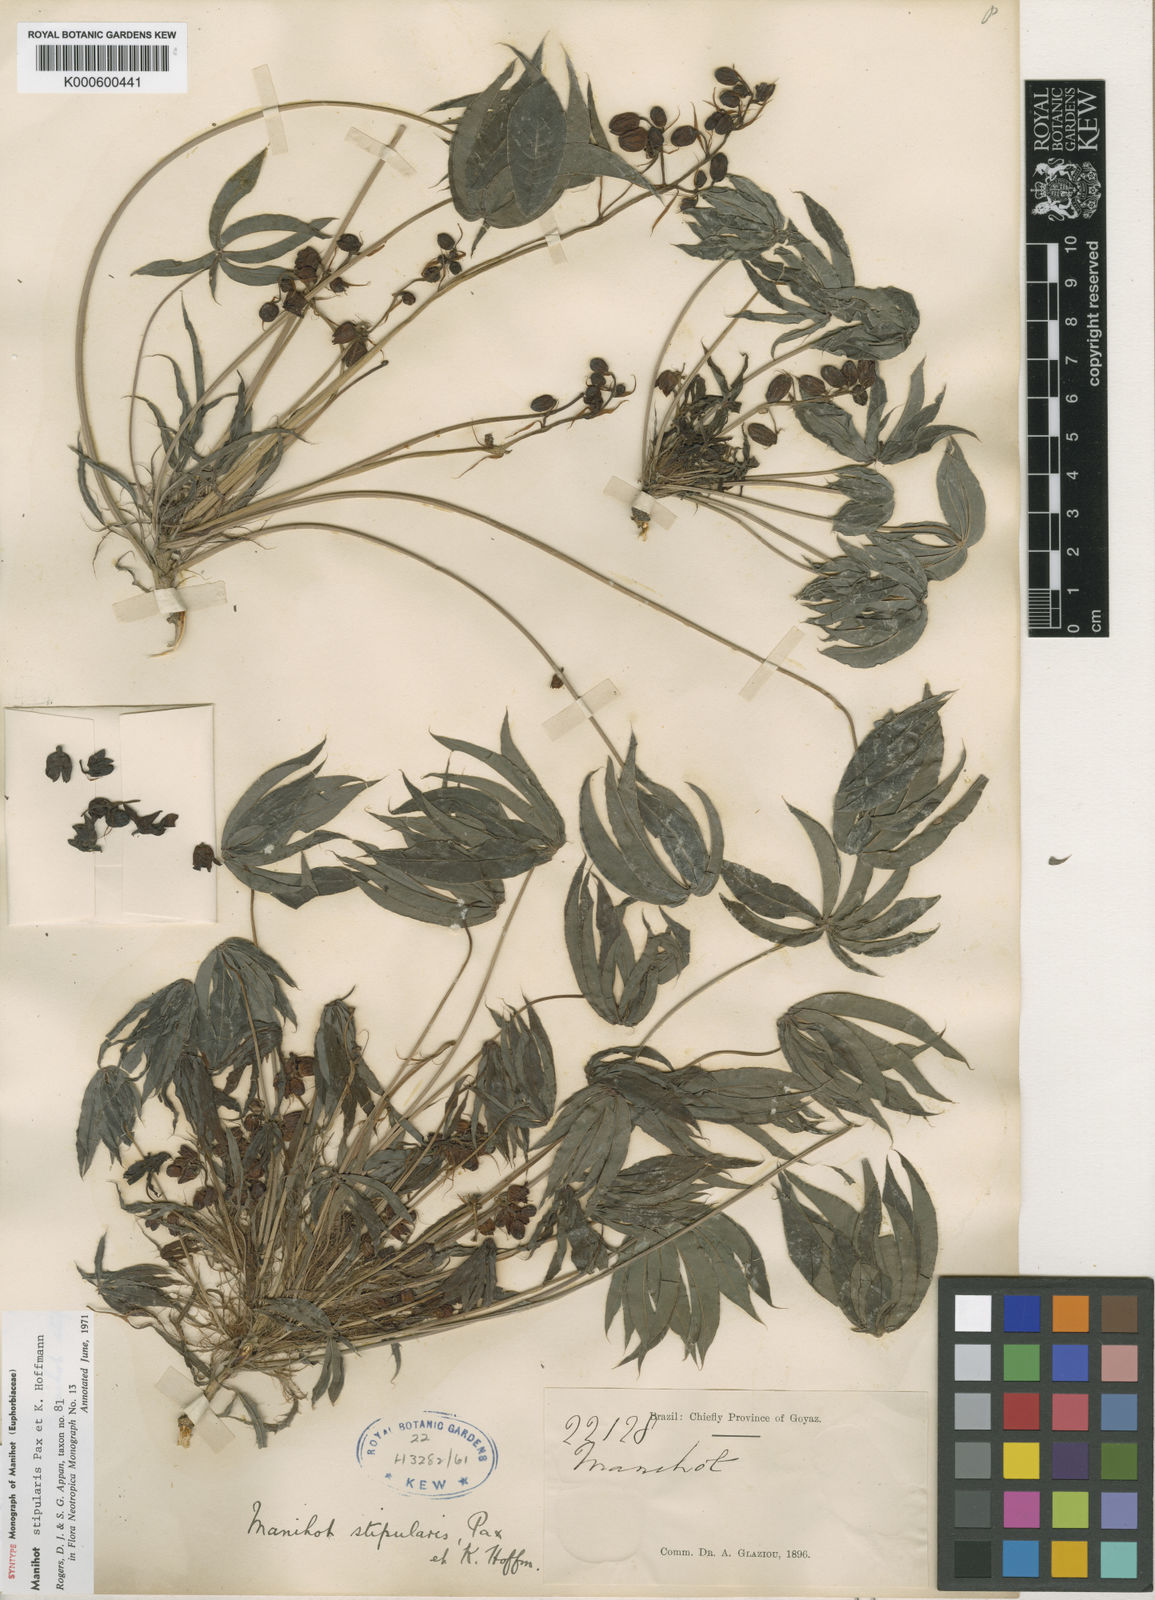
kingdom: Plantae
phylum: Tracheophyta
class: Magnoliopsida
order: Malpighiales
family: Euphorbiaceae
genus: Manihot
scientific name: Manihot stipularis
